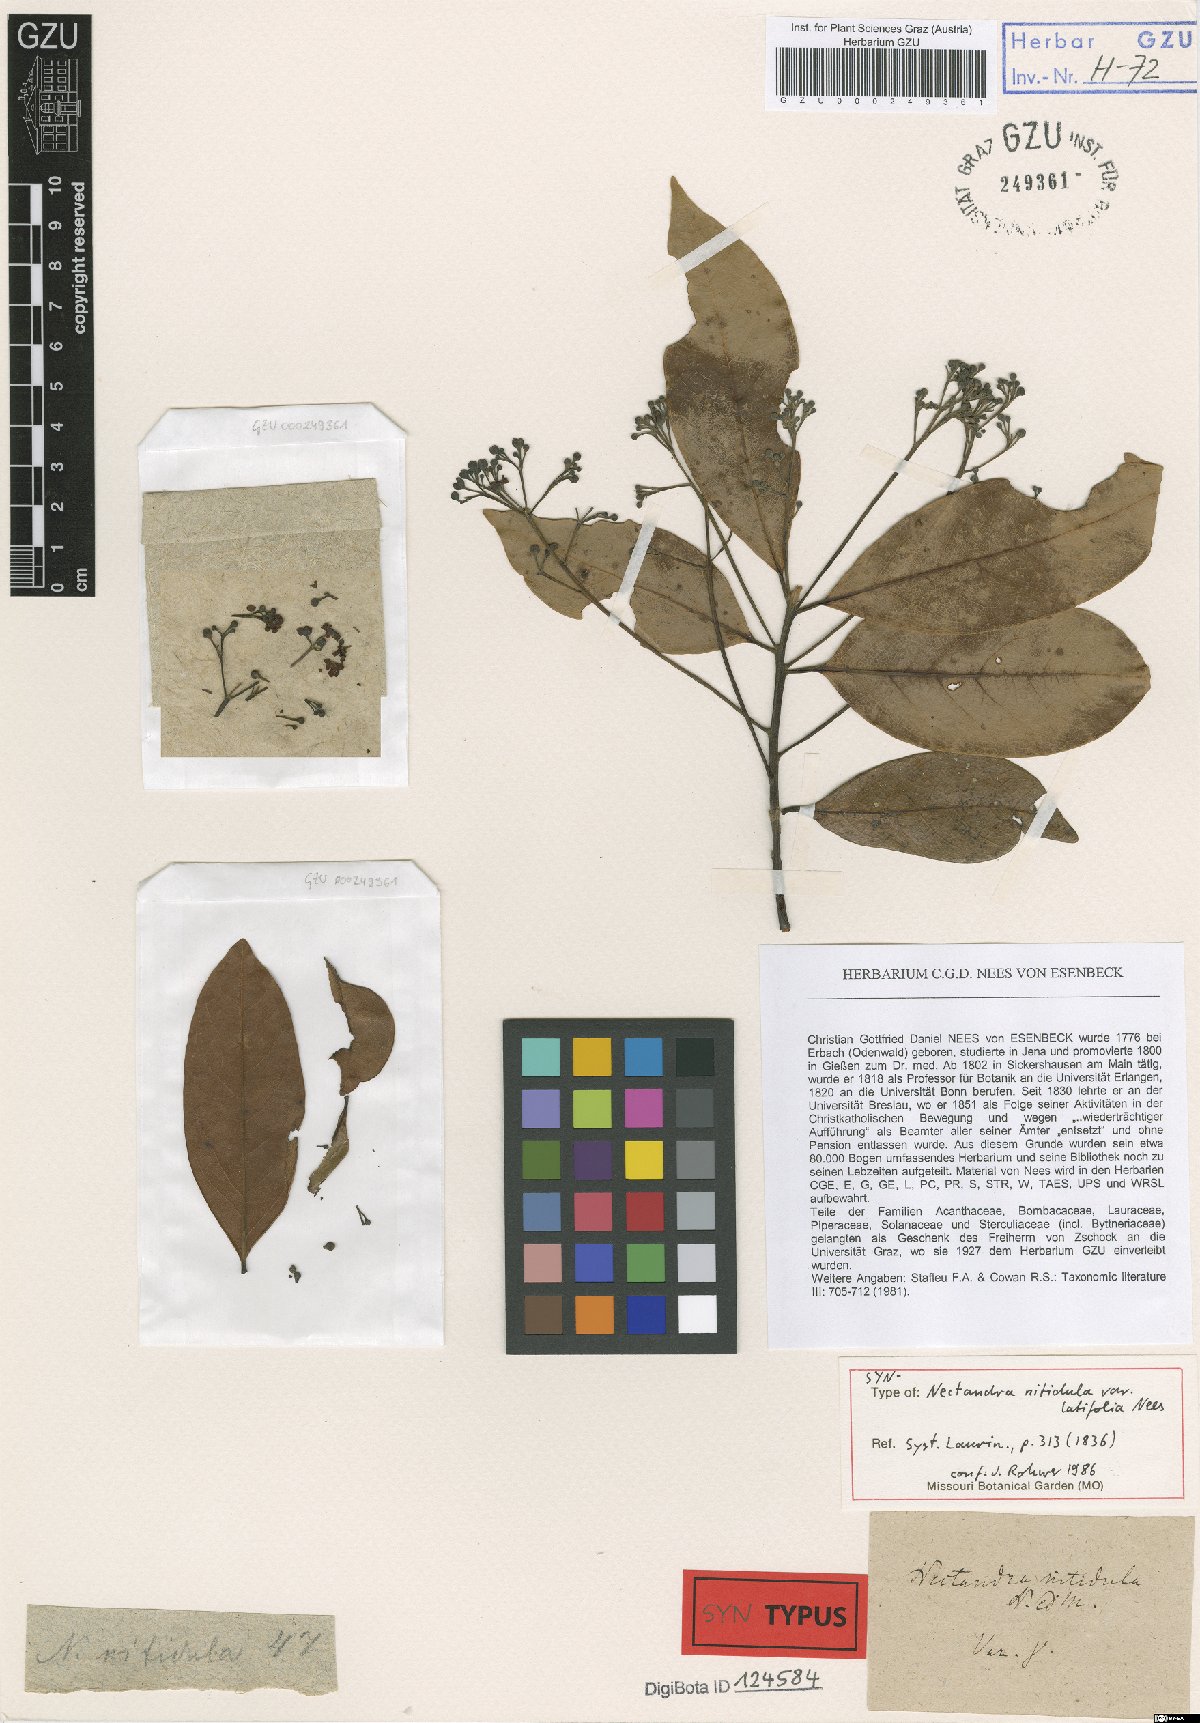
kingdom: Plantae
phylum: Tracheophyta
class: Magnoliopsida
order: Laurales
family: Lauraceae
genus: Nectandra
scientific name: Nectandra nitidula
